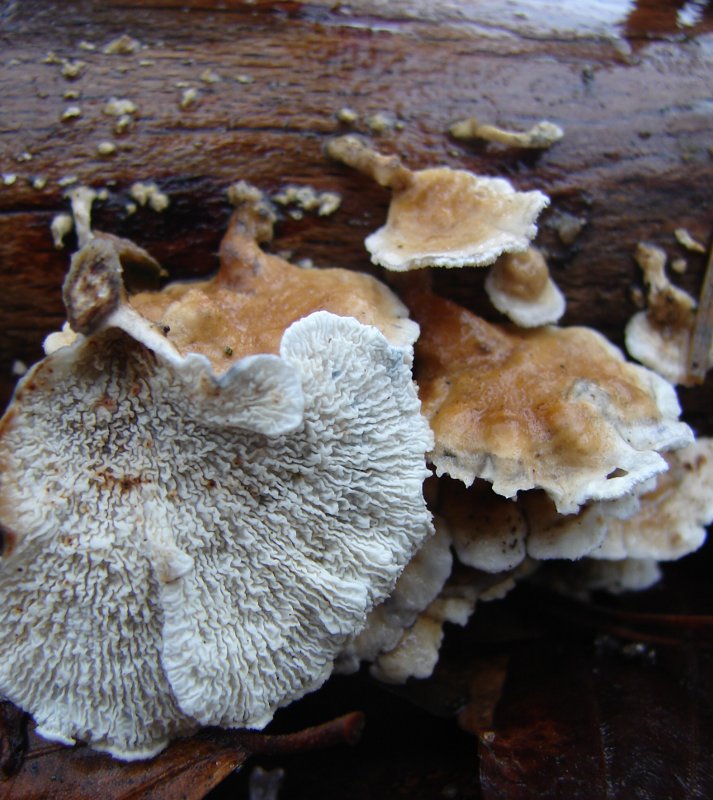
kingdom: Fungi
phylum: Basidiomycota
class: Agaricomycetes
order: Amylocorticiales
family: Amylocorticiaceae
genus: Plicaturopsis
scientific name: Plicaturopsis crispa
